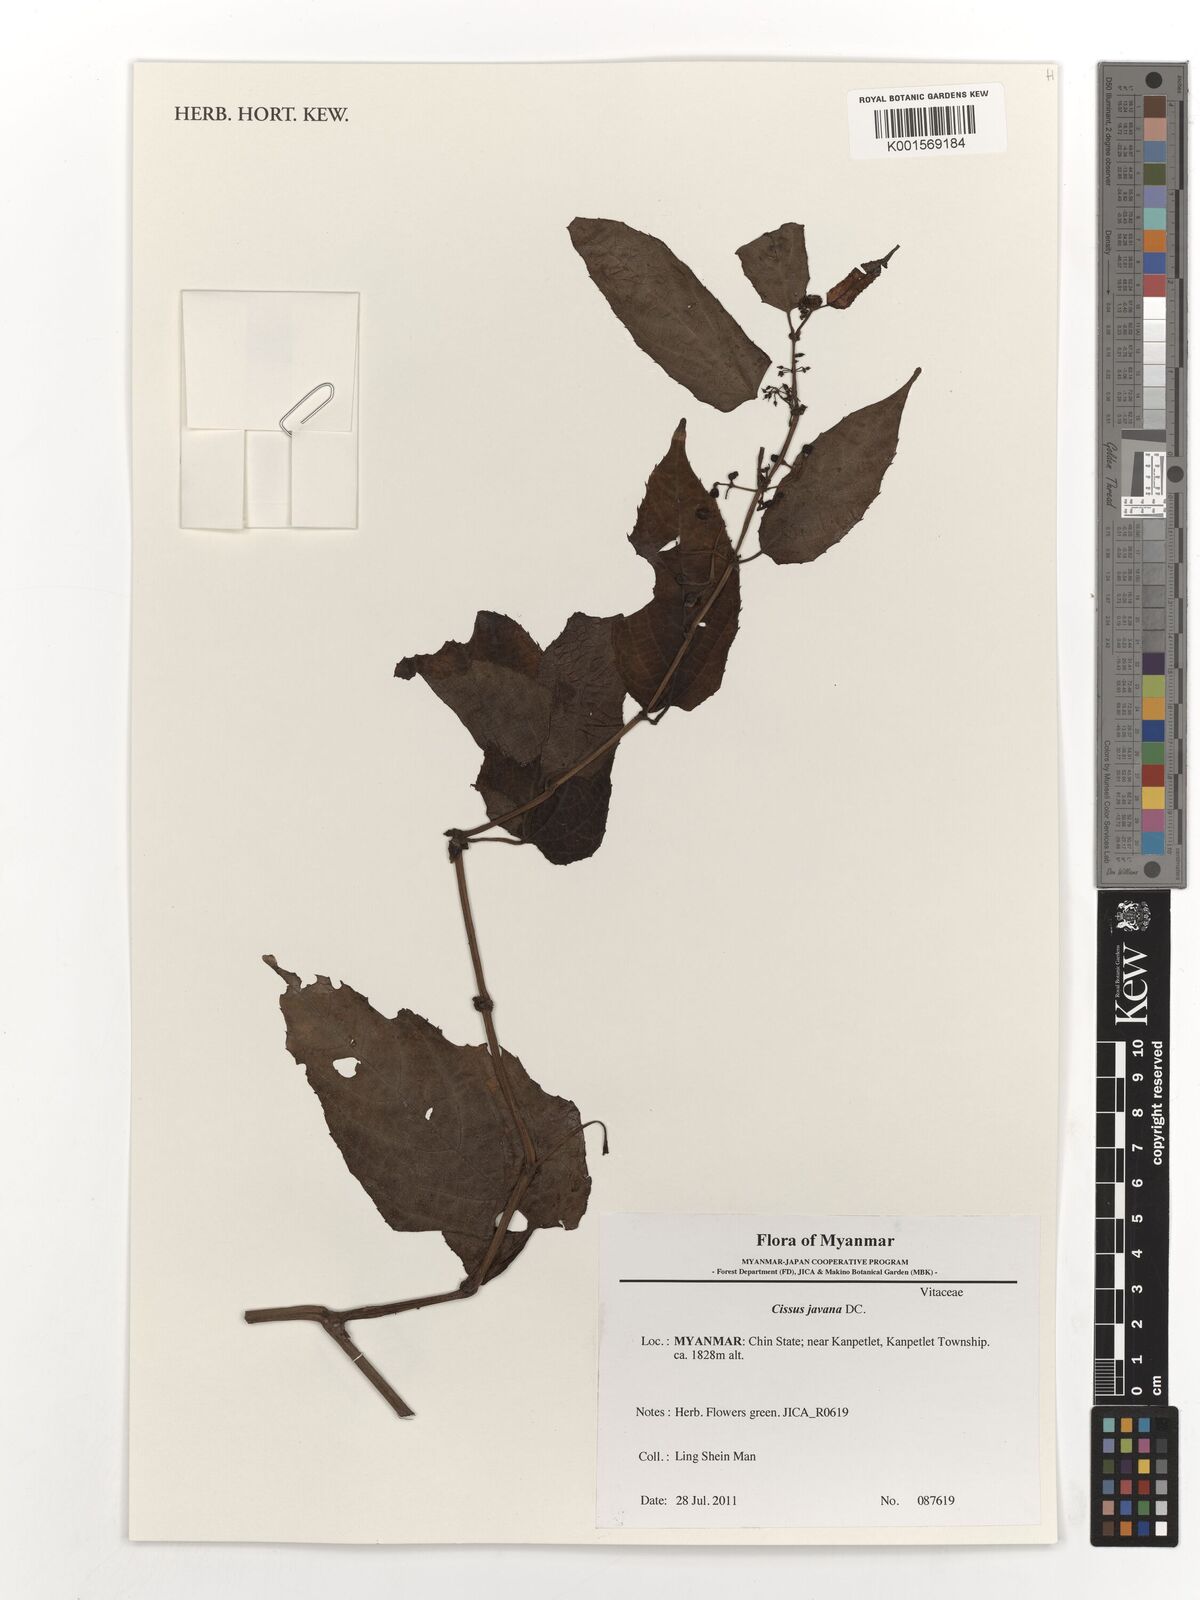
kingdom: Plantae
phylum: Tracheophyta
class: Magnoliopsida
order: Vitales
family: Vitaceae
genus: Cissus
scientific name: Cissus discolor
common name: Climbing-begonia
